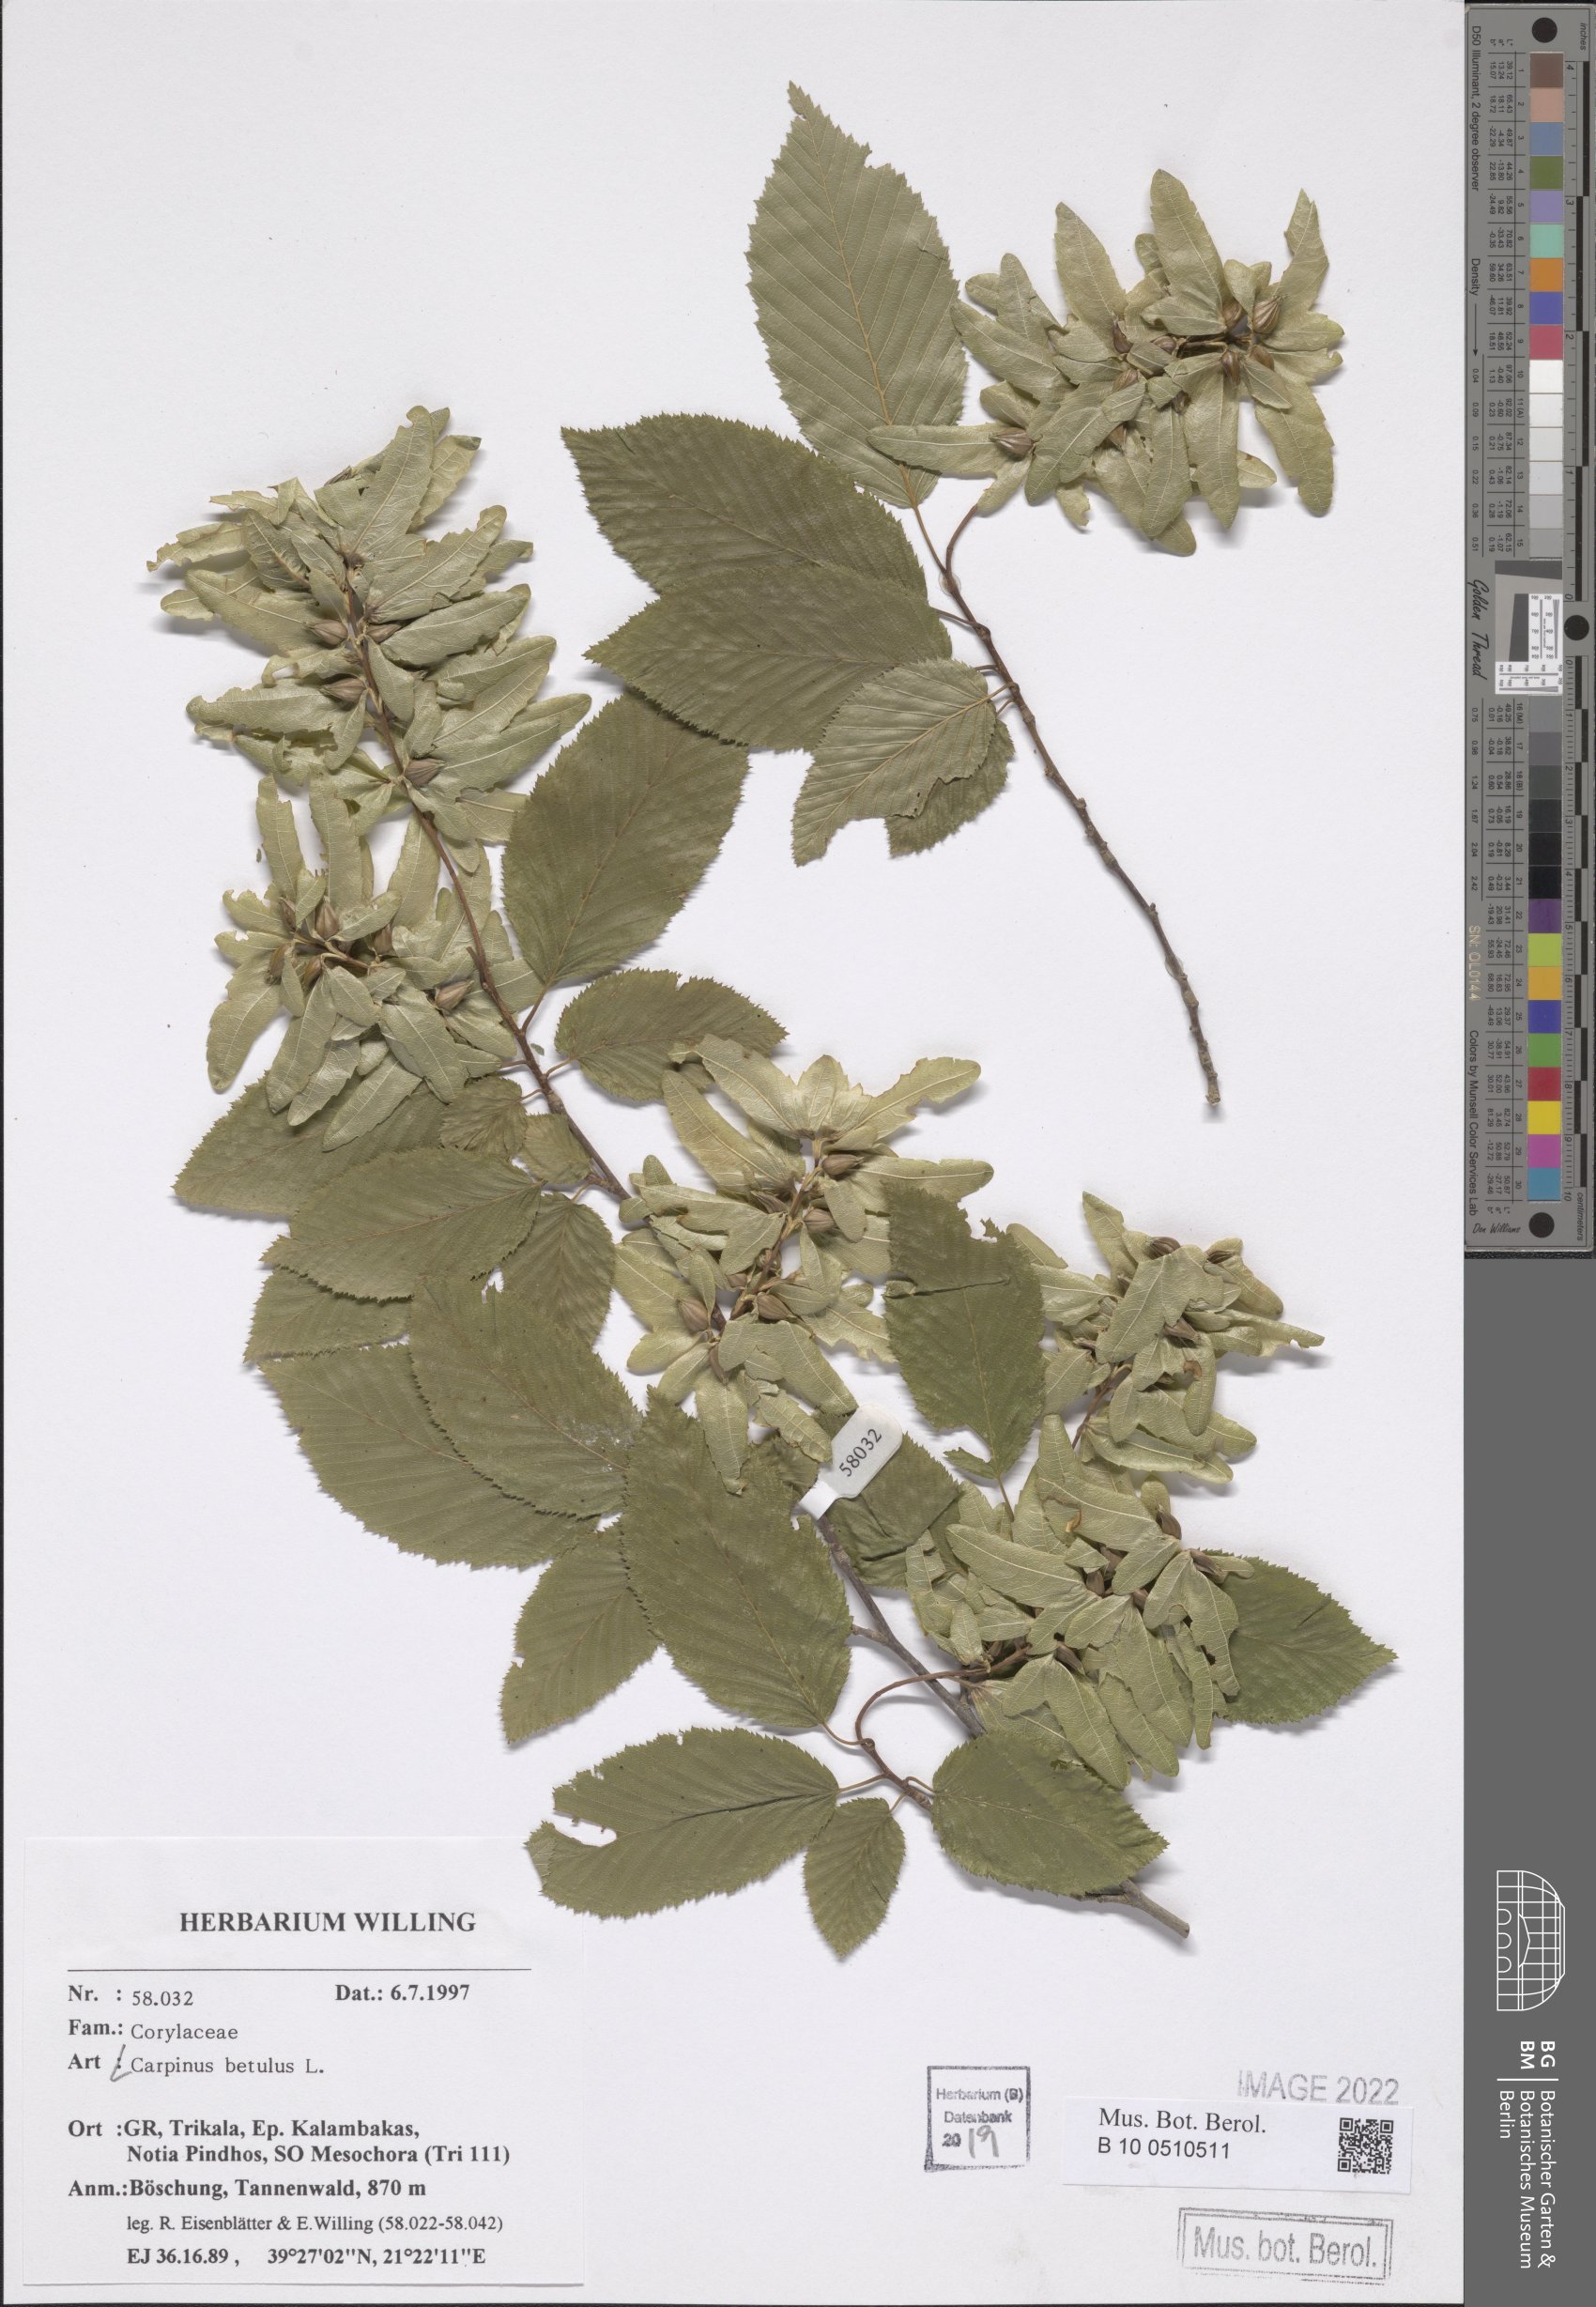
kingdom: Plantae
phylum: Tracheophyta
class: Magnoliopsida
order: Fagales
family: Betulaceae
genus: Carpinus
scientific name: Carpinus betulus
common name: Hornbeam
